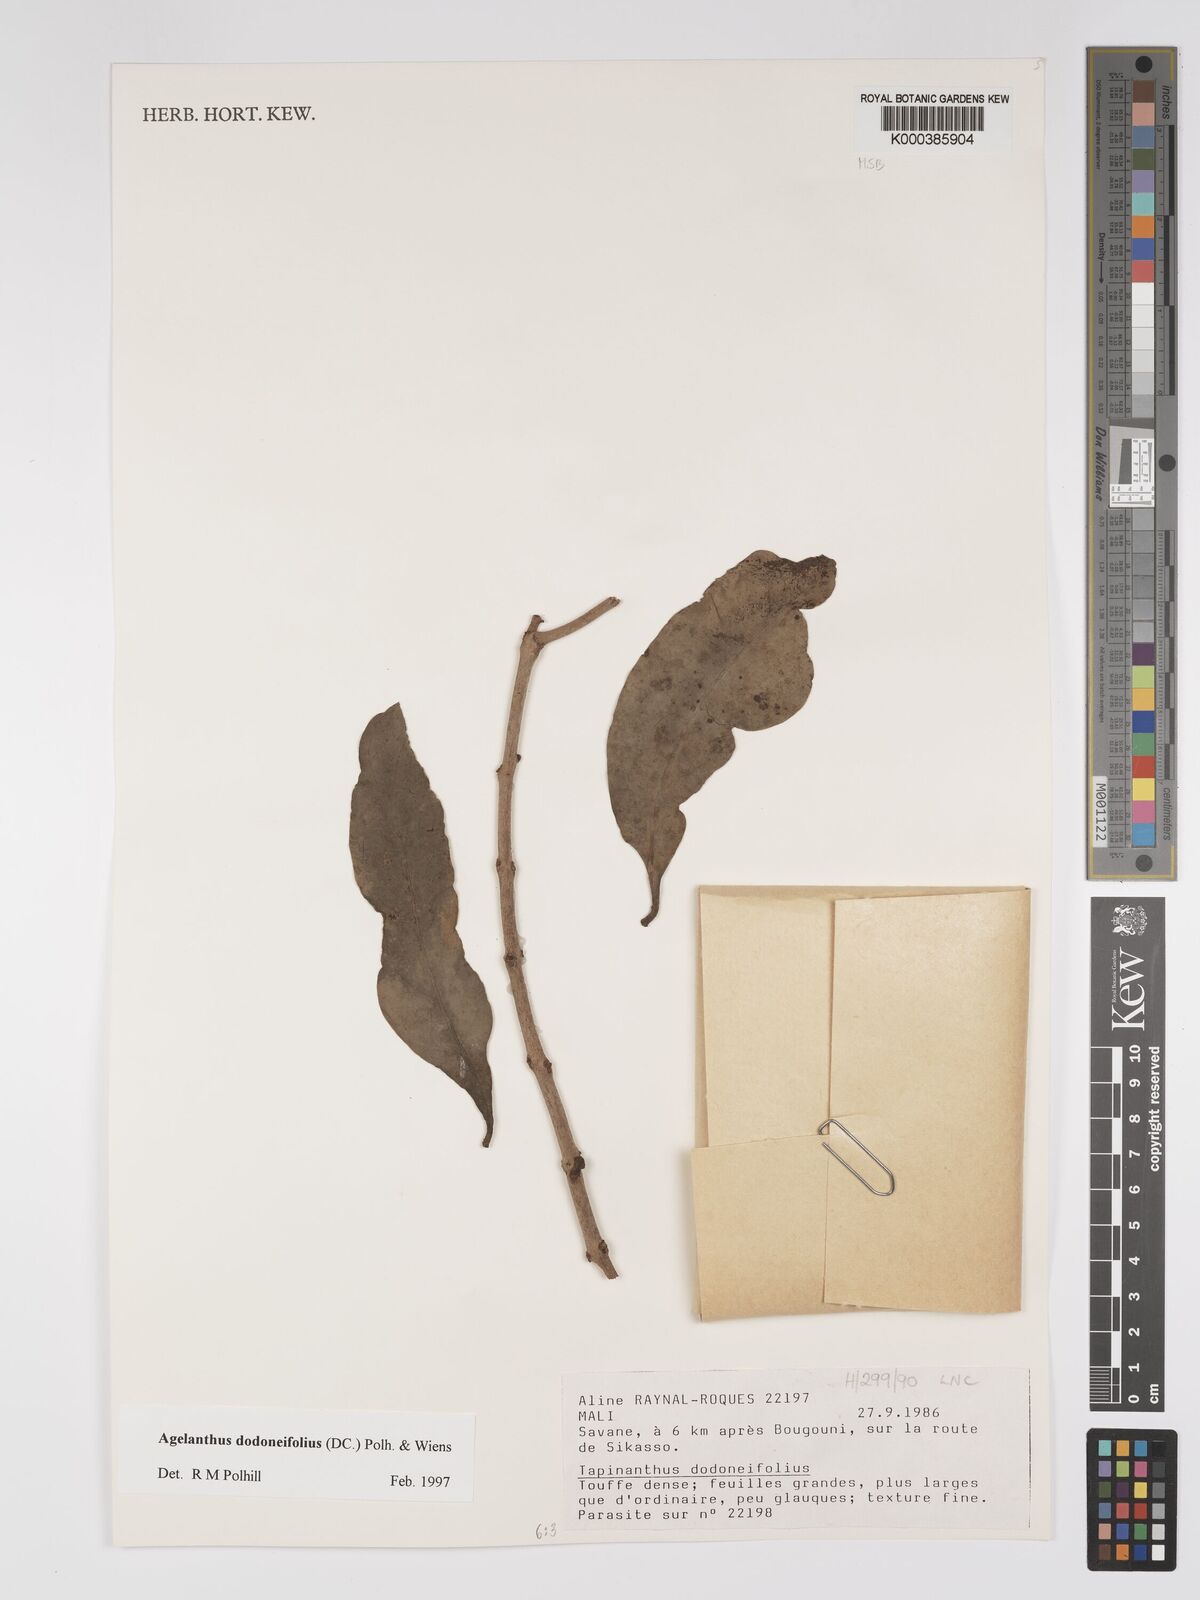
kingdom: Plantae
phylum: Tracheophyta
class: Magnoliopsida
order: Santalales
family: Loranthaceae
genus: Agelanthus
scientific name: Agelanthus dodoneifolius
